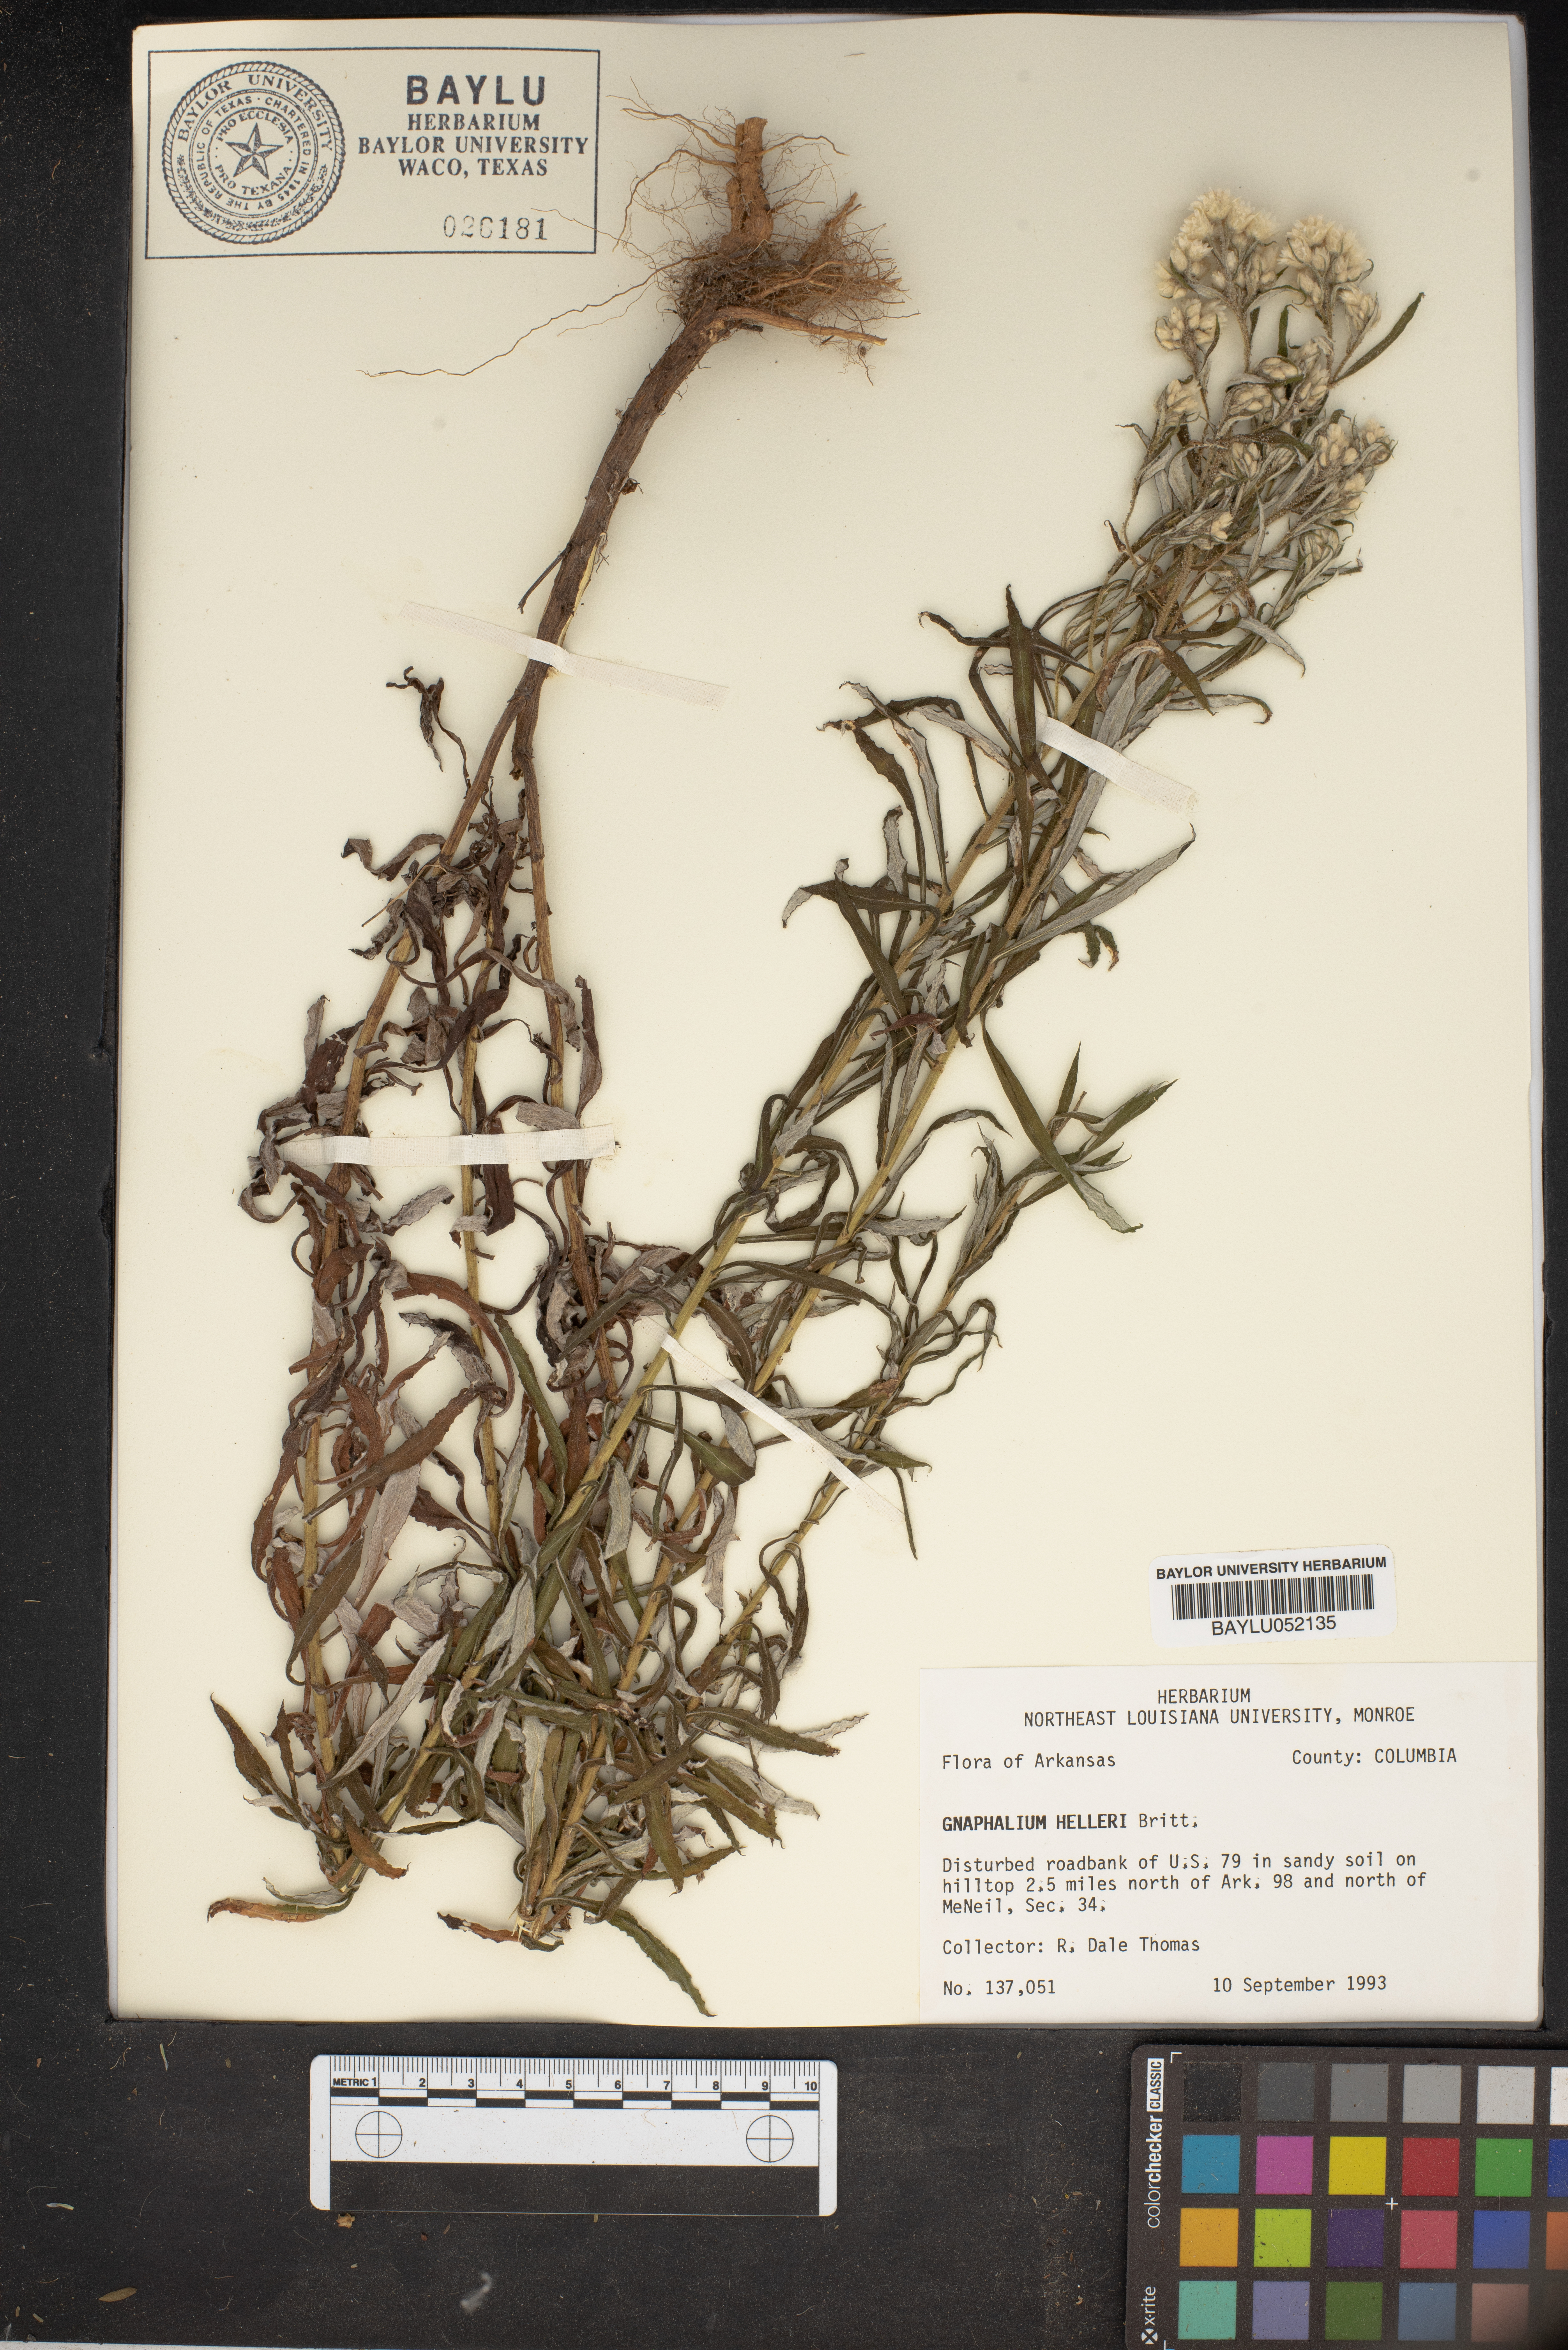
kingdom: Plantae
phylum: Tracheophyta
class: Magnoliopsida
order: Asterales
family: Asteraceae
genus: Pseudognaphalium
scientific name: Pseudognaphalium helleri
